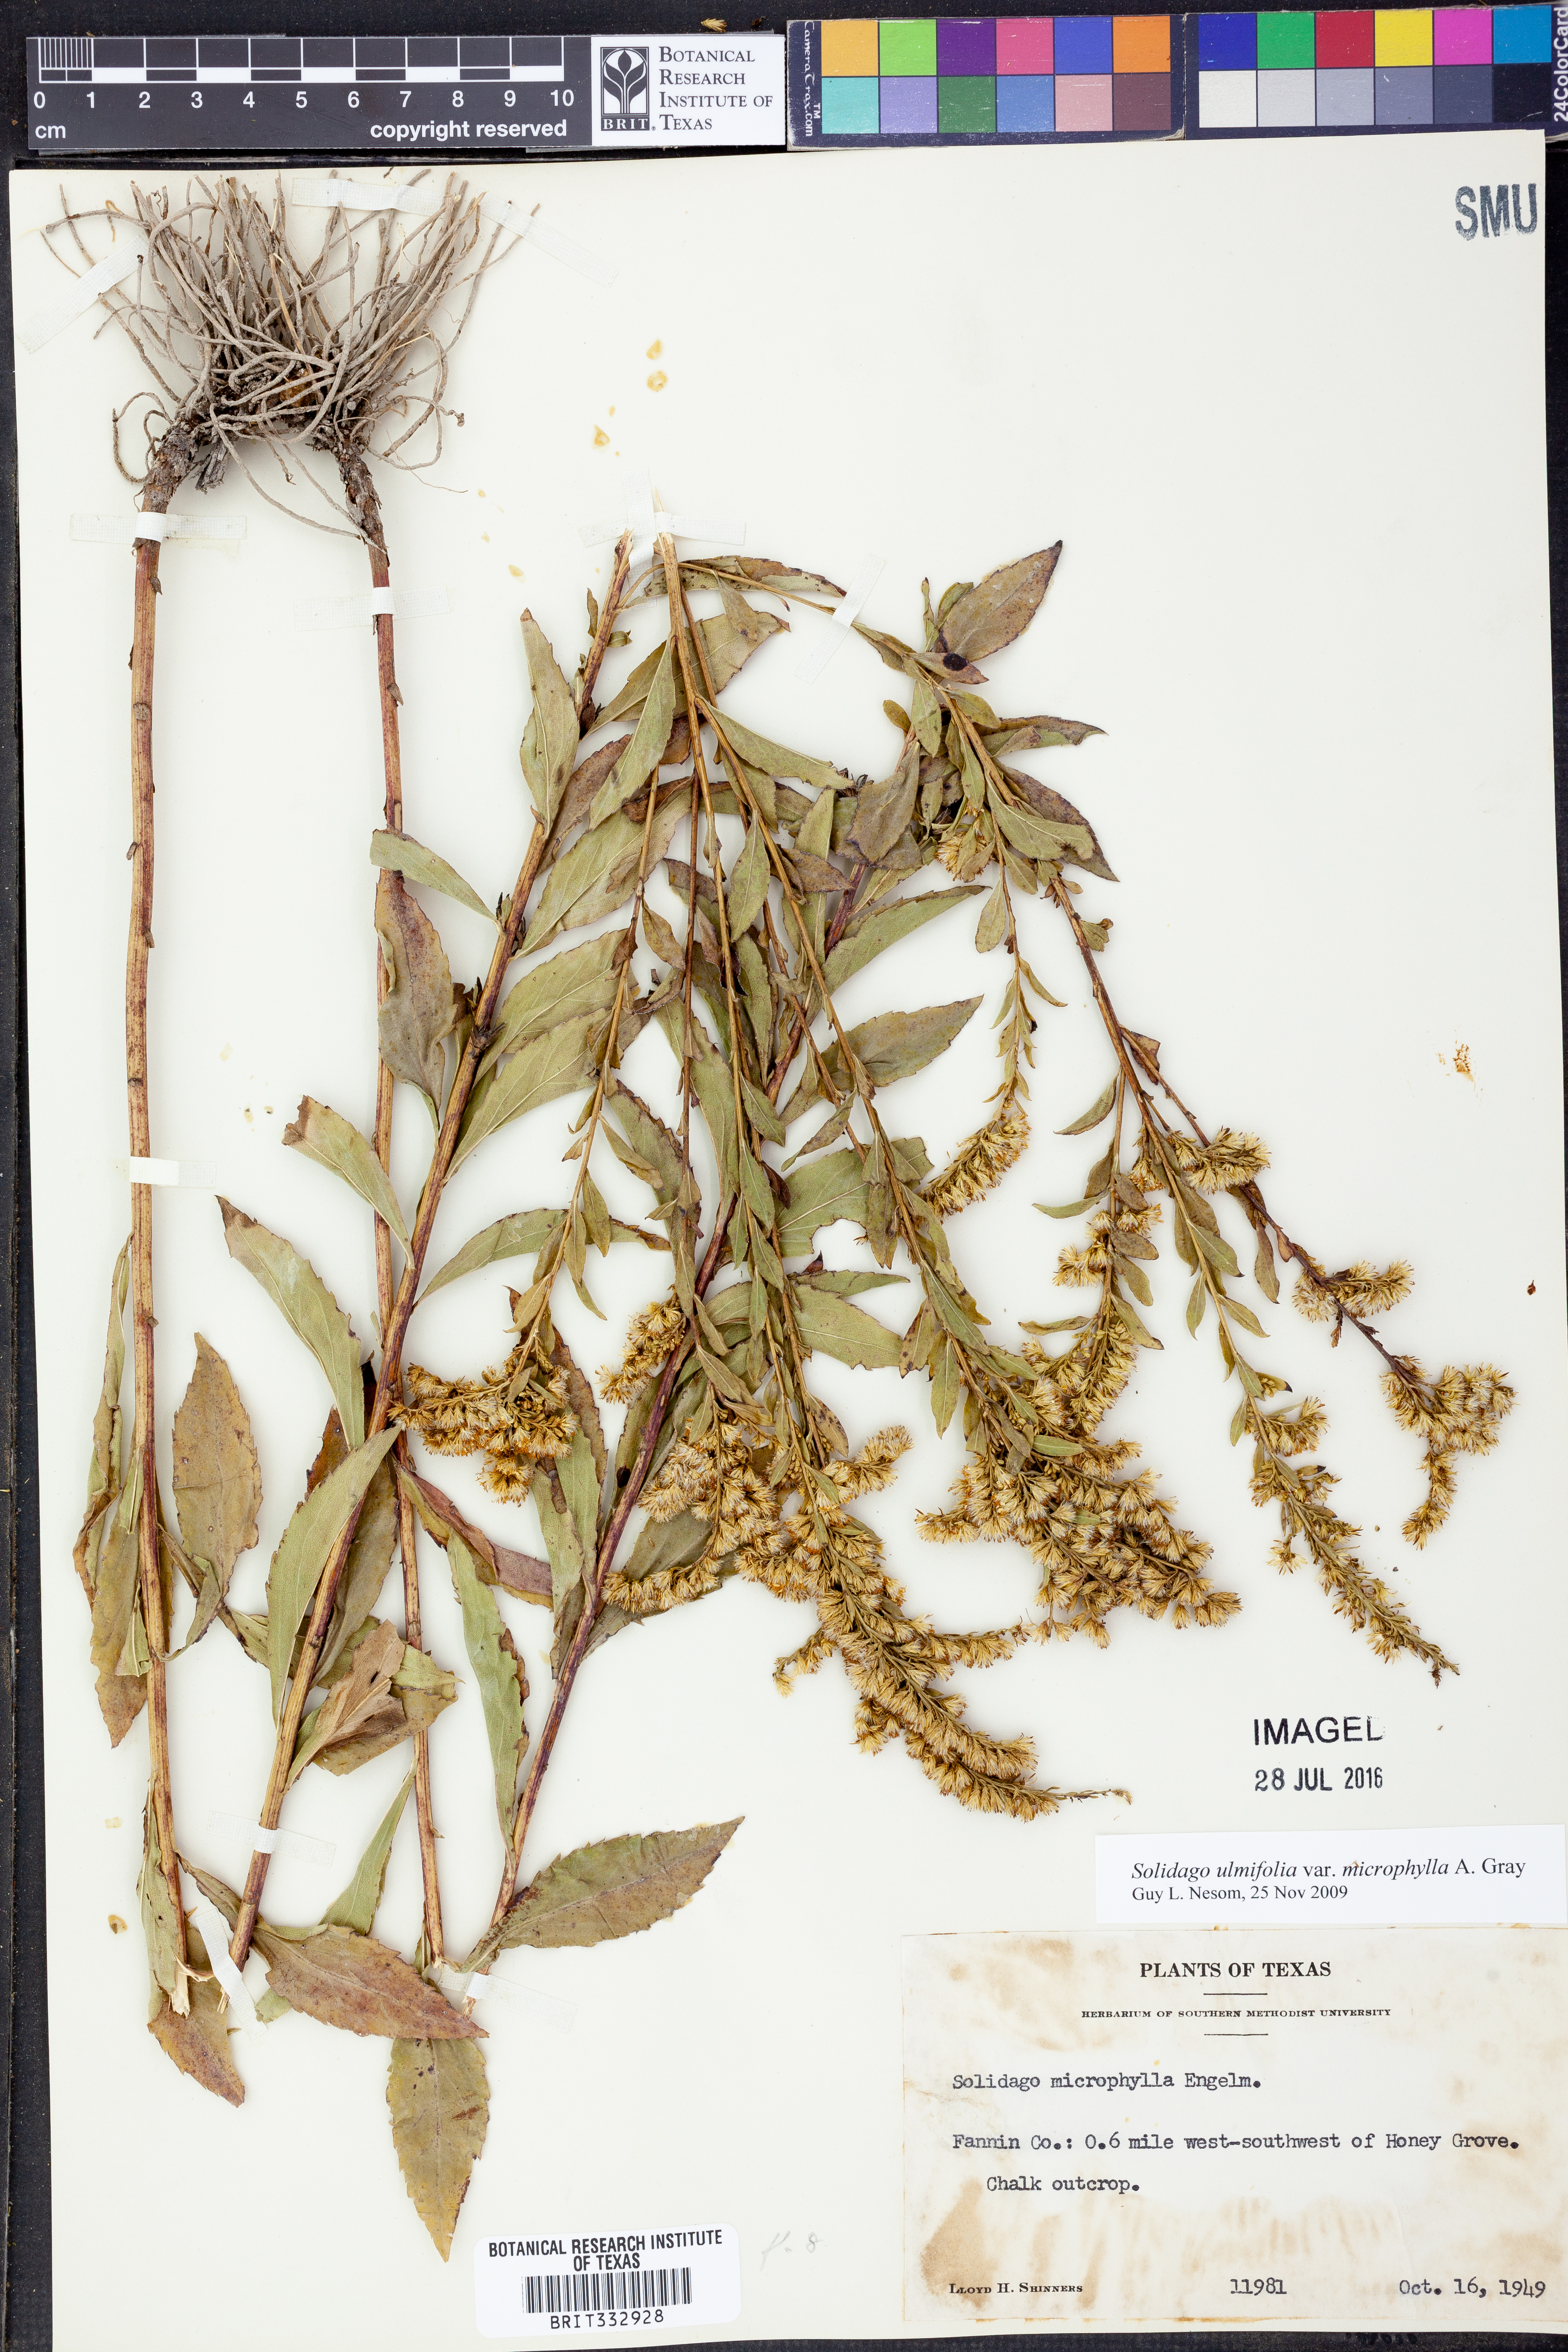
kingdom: Plantae
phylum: Tracheophyta
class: Magnoliopsida
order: Asterales
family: Asteraceae
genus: Solidago
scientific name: Solidago delicatula
